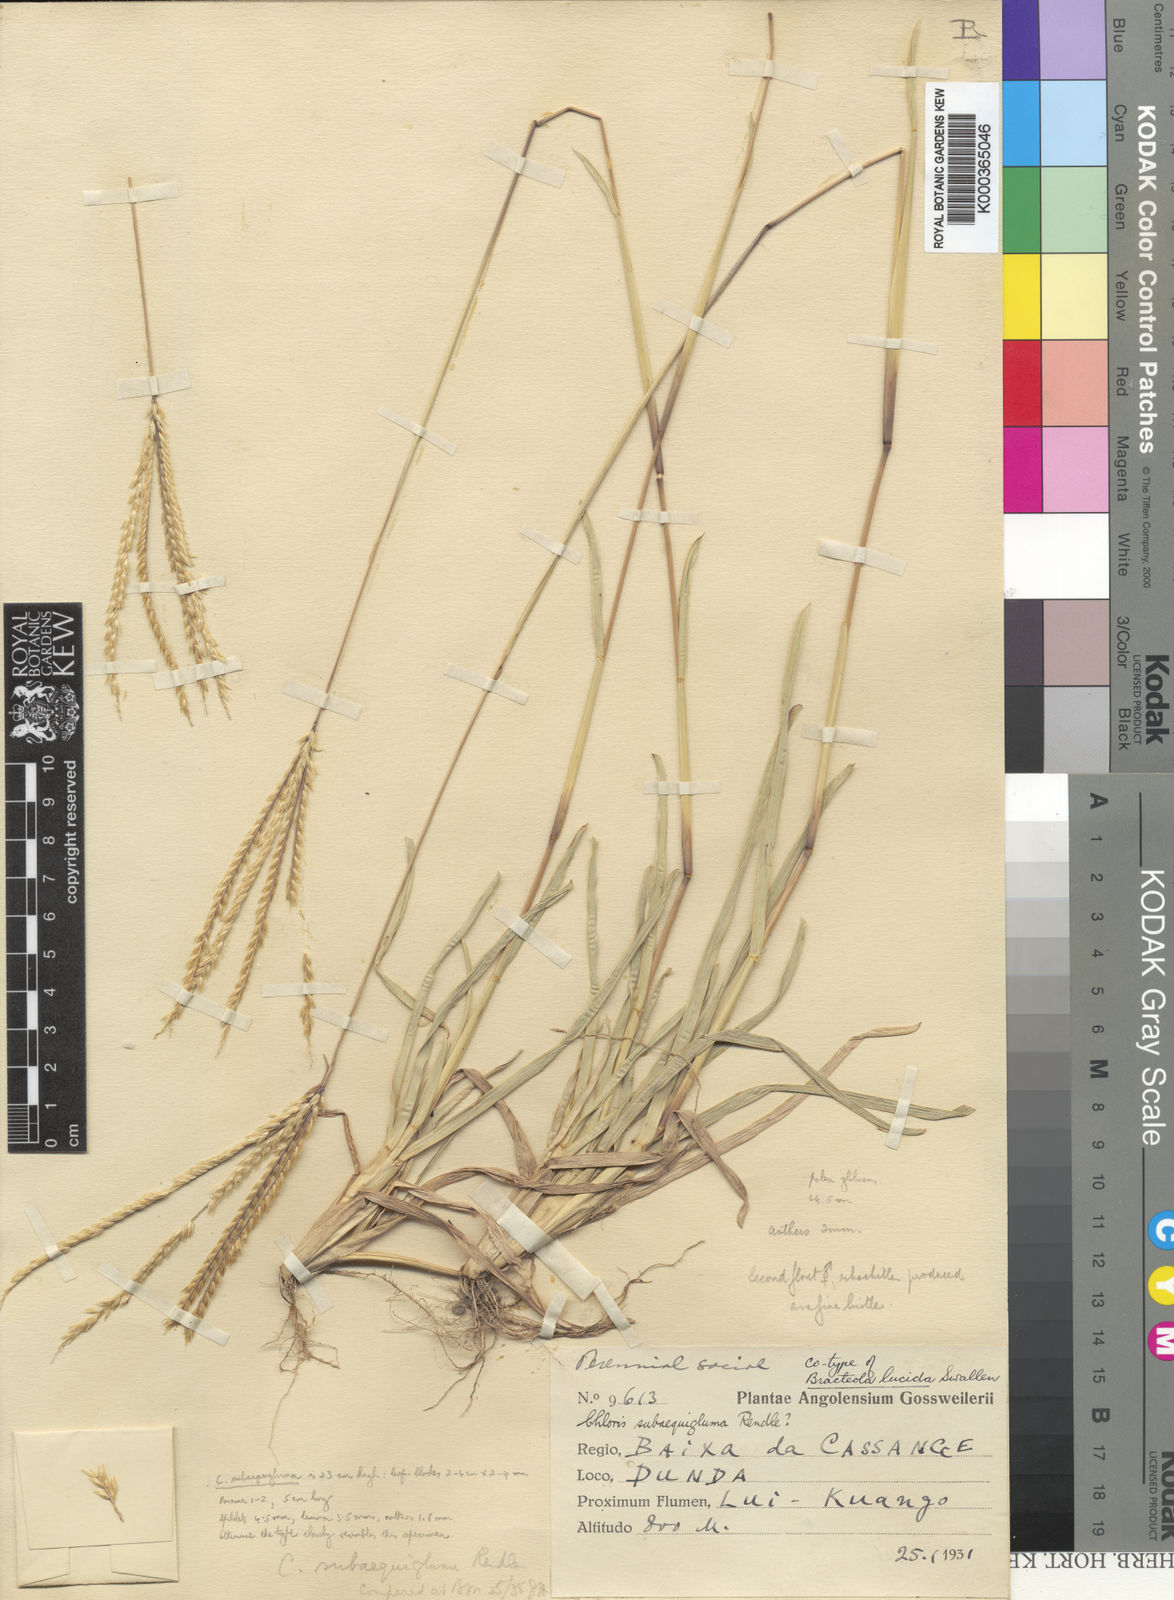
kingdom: Plantae
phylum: Tracheophyta
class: Liliopsida
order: Poales
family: Poaceae
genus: Chrysochloa
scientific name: Chrysochloa subaequigluma
